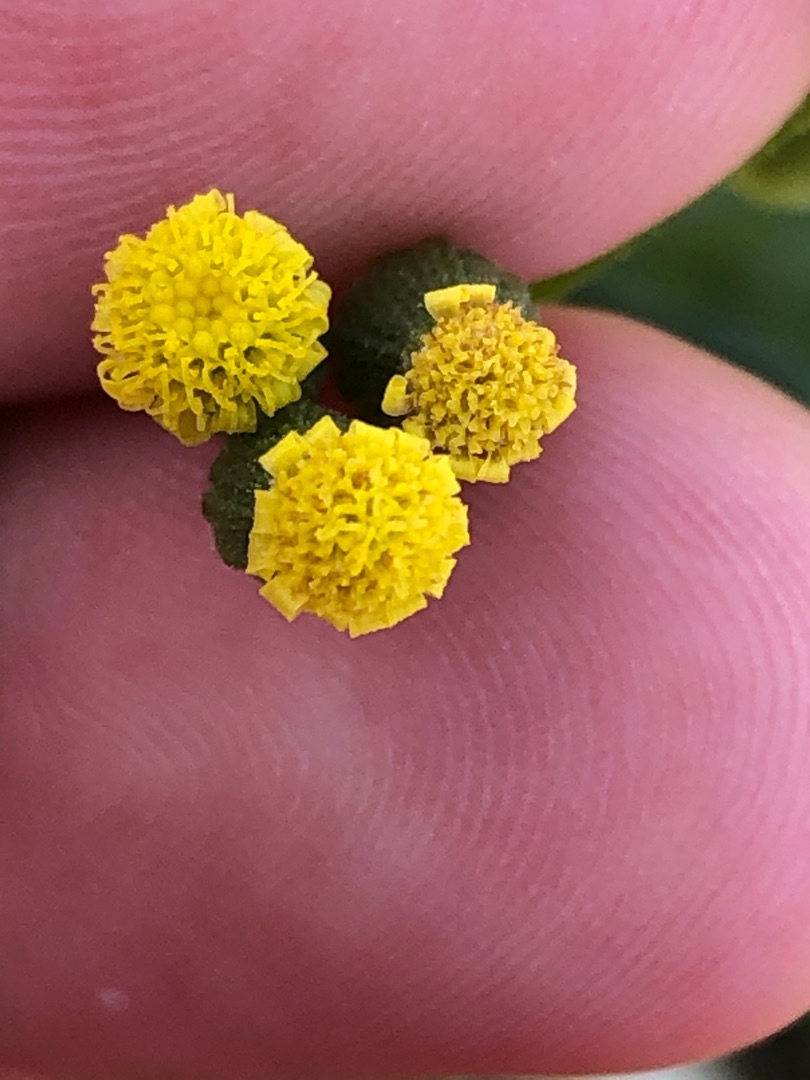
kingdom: Plantae
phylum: Tracheophyta
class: Magnoliopsida
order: Asterales
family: Asteraceae
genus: Senecio
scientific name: Senecio sylvaticus
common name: Skov-brandbæger
